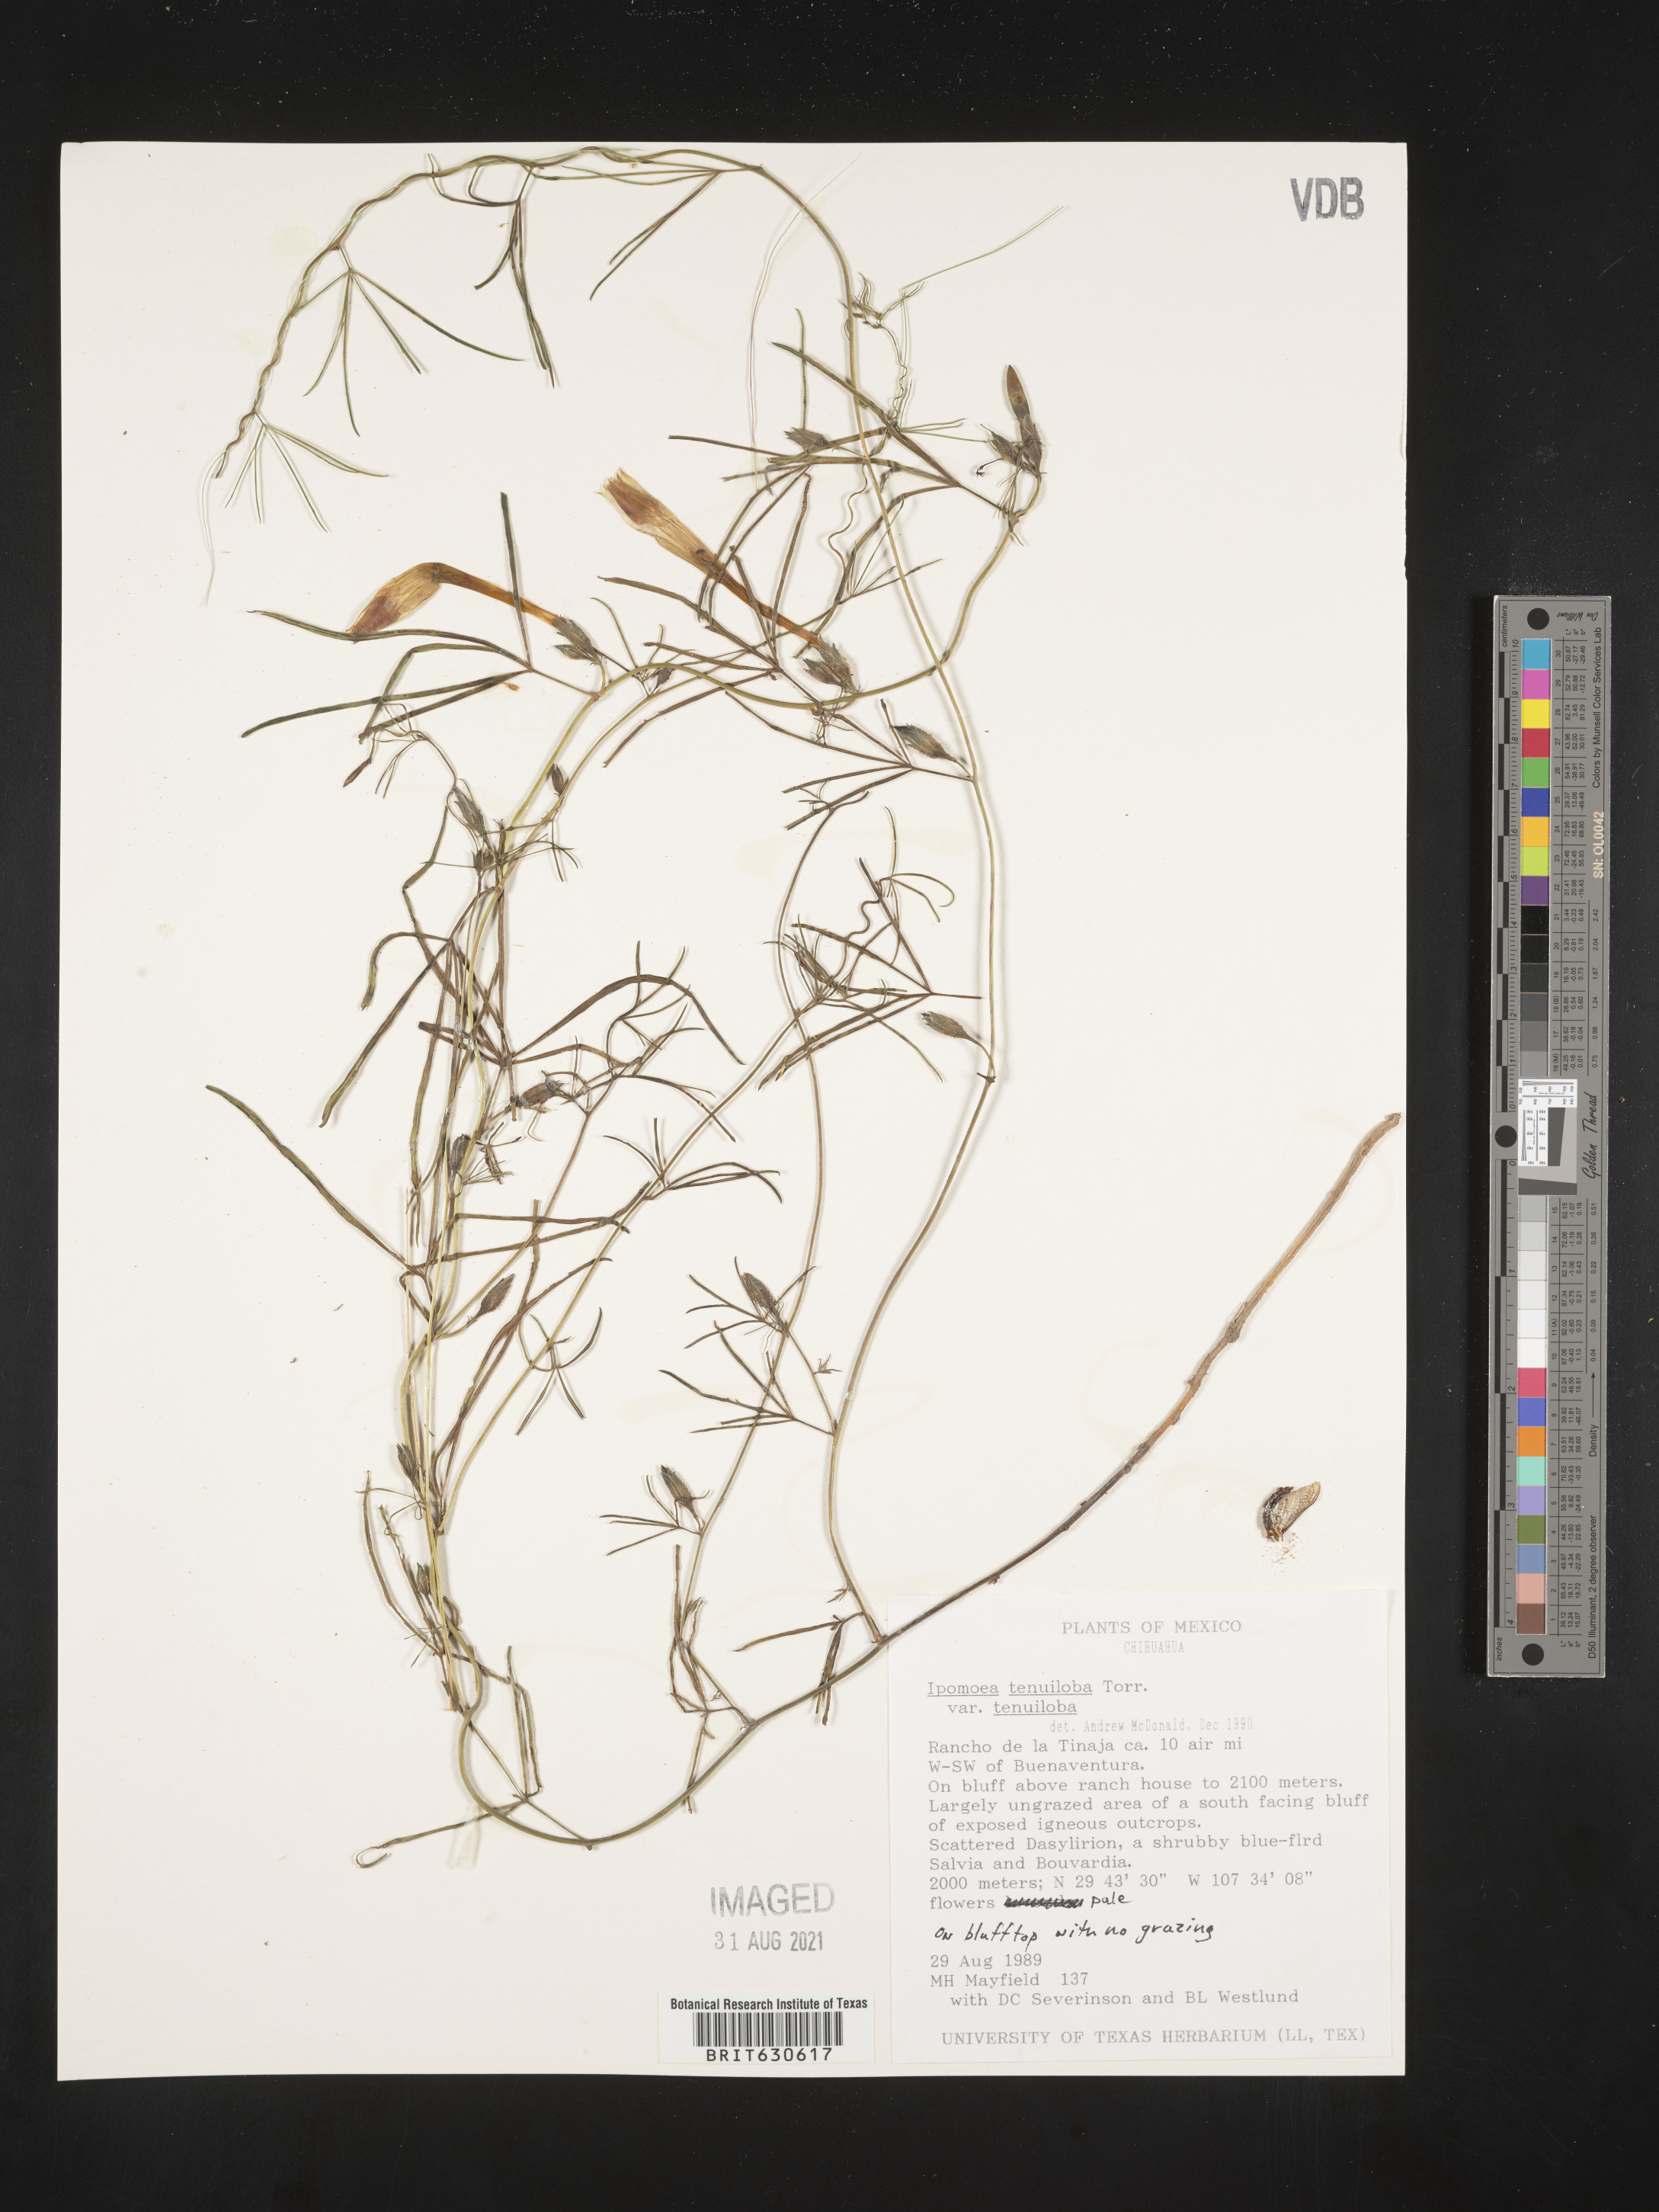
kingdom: Plantae
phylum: Tracheophyta
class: Magnoliopsida
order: Solanales
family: Convolvulaceae
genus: Ipomoea
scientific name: Ipomoea
